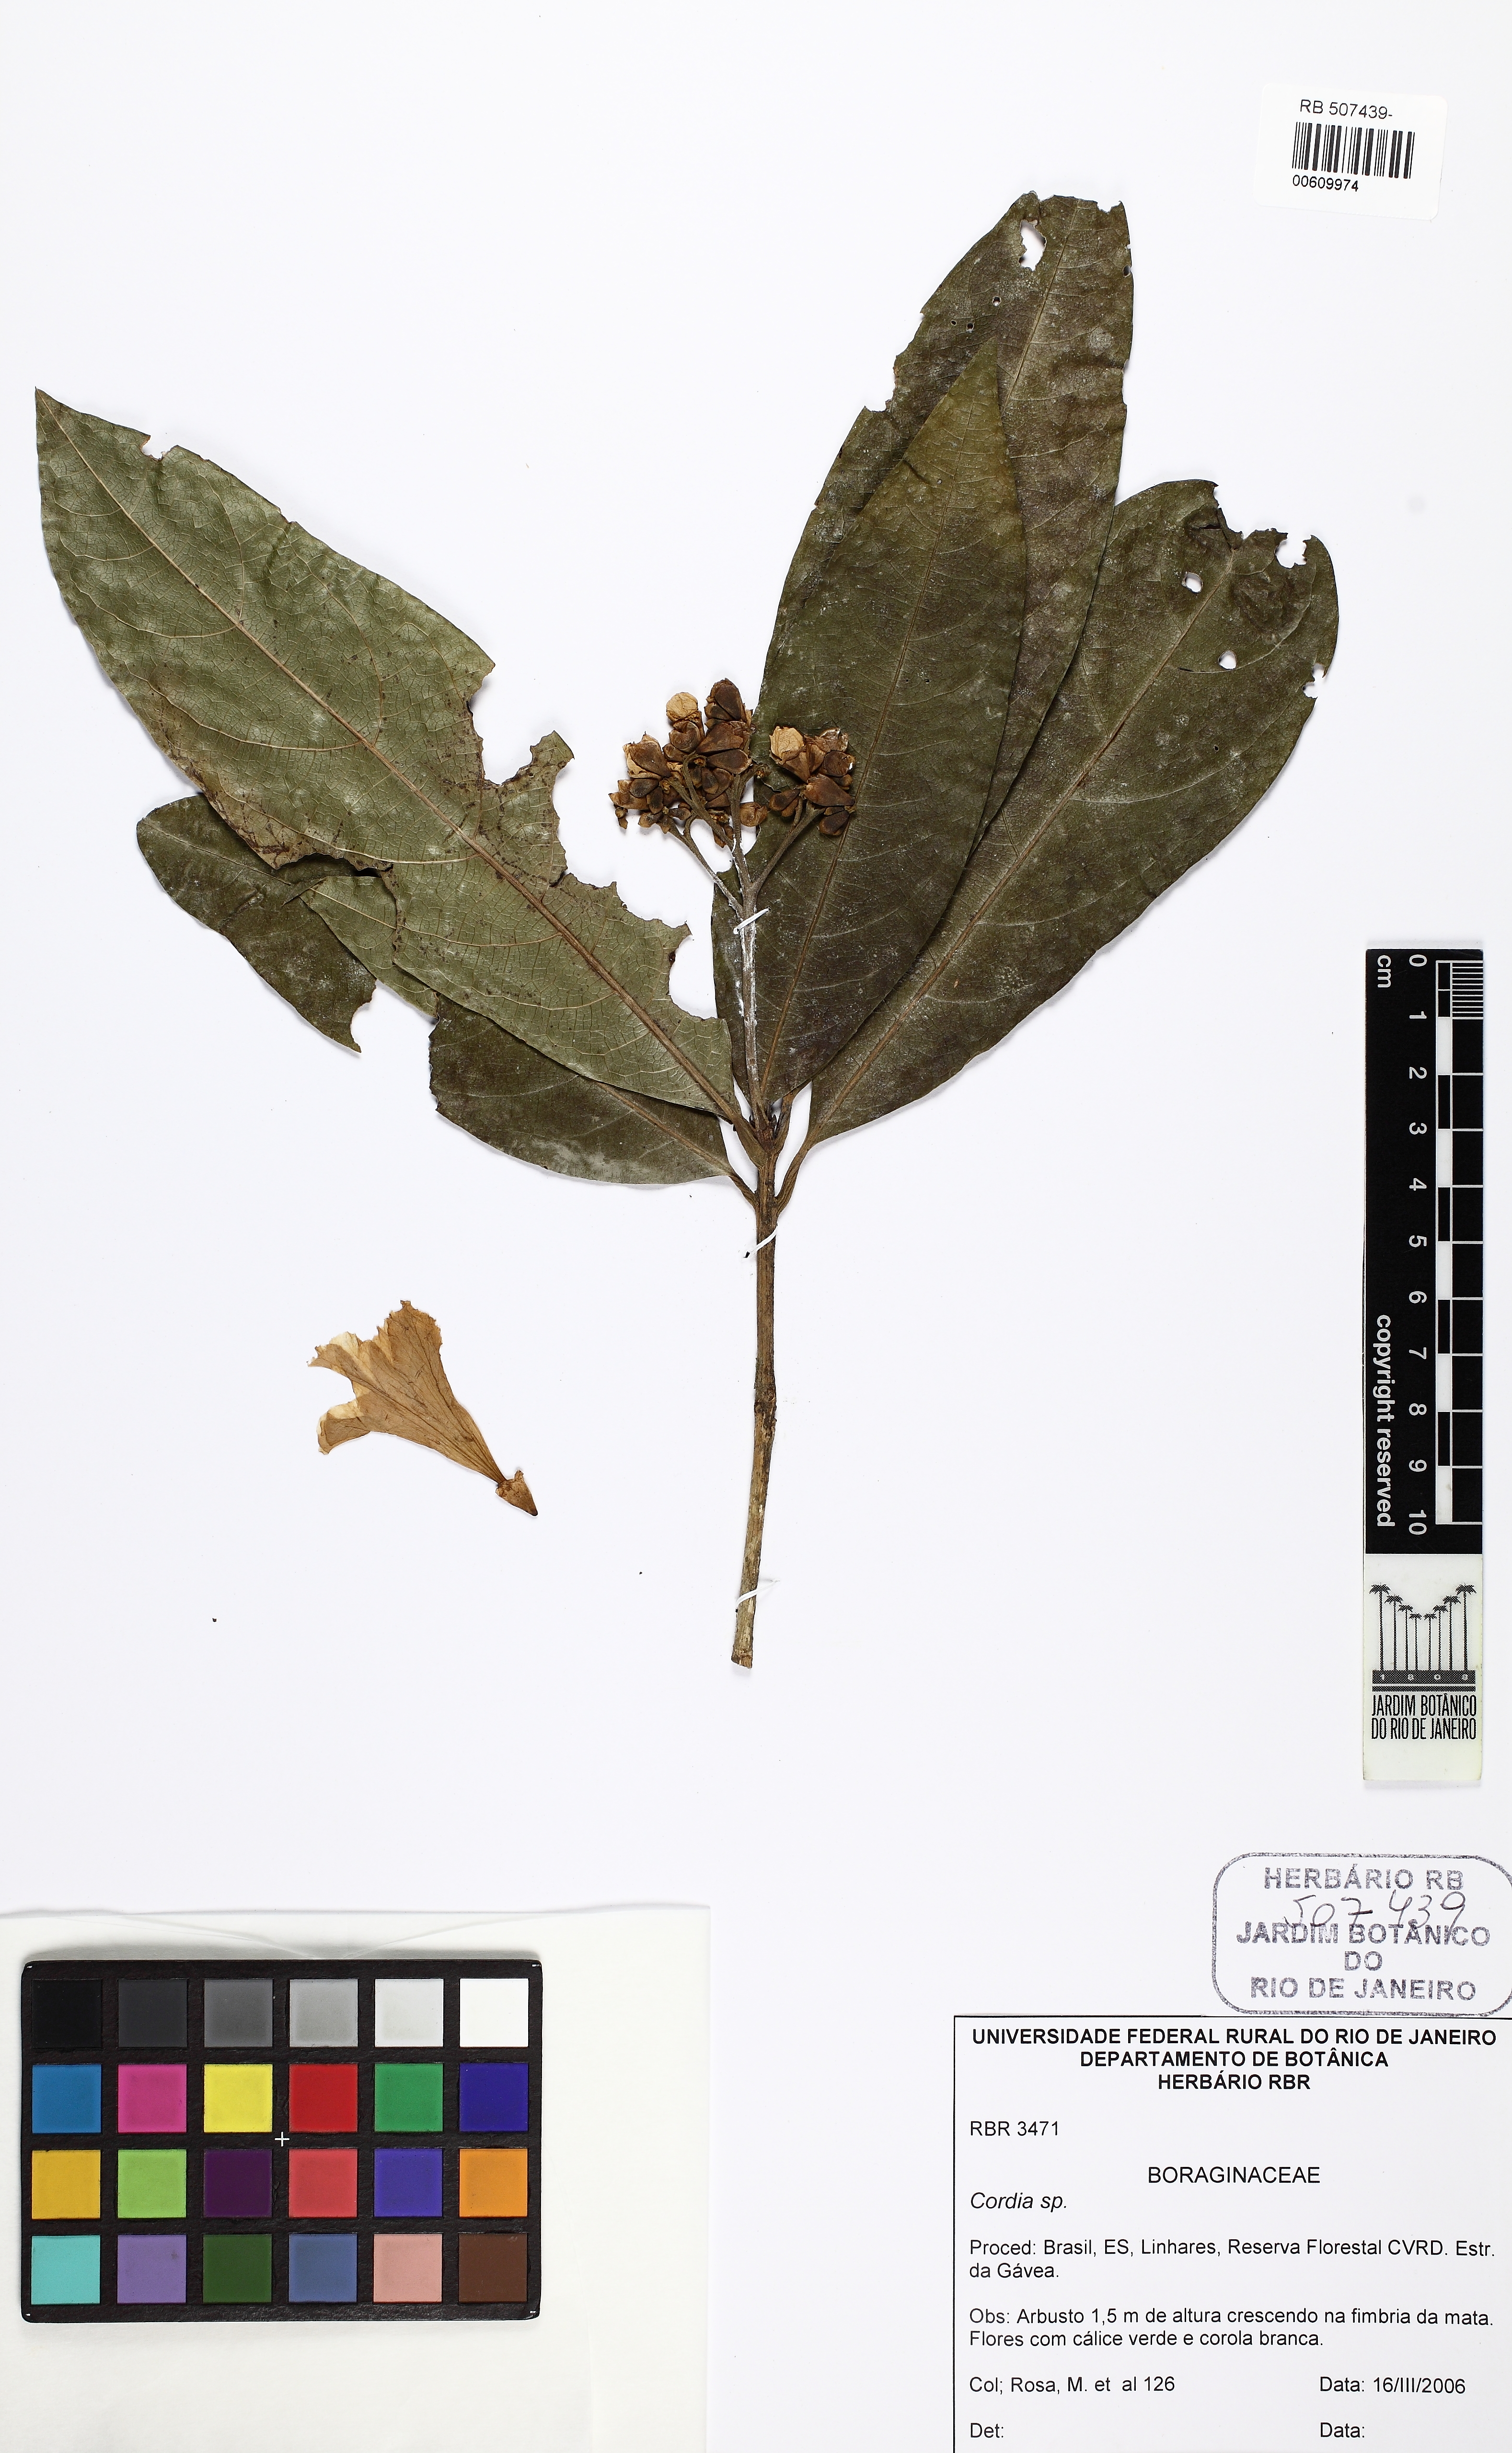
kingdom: Plantae
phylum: Tracheophyta
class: Magnoliopsida
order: Boraginales
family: Cordiaceae
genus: Cordia
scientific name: Cordia
